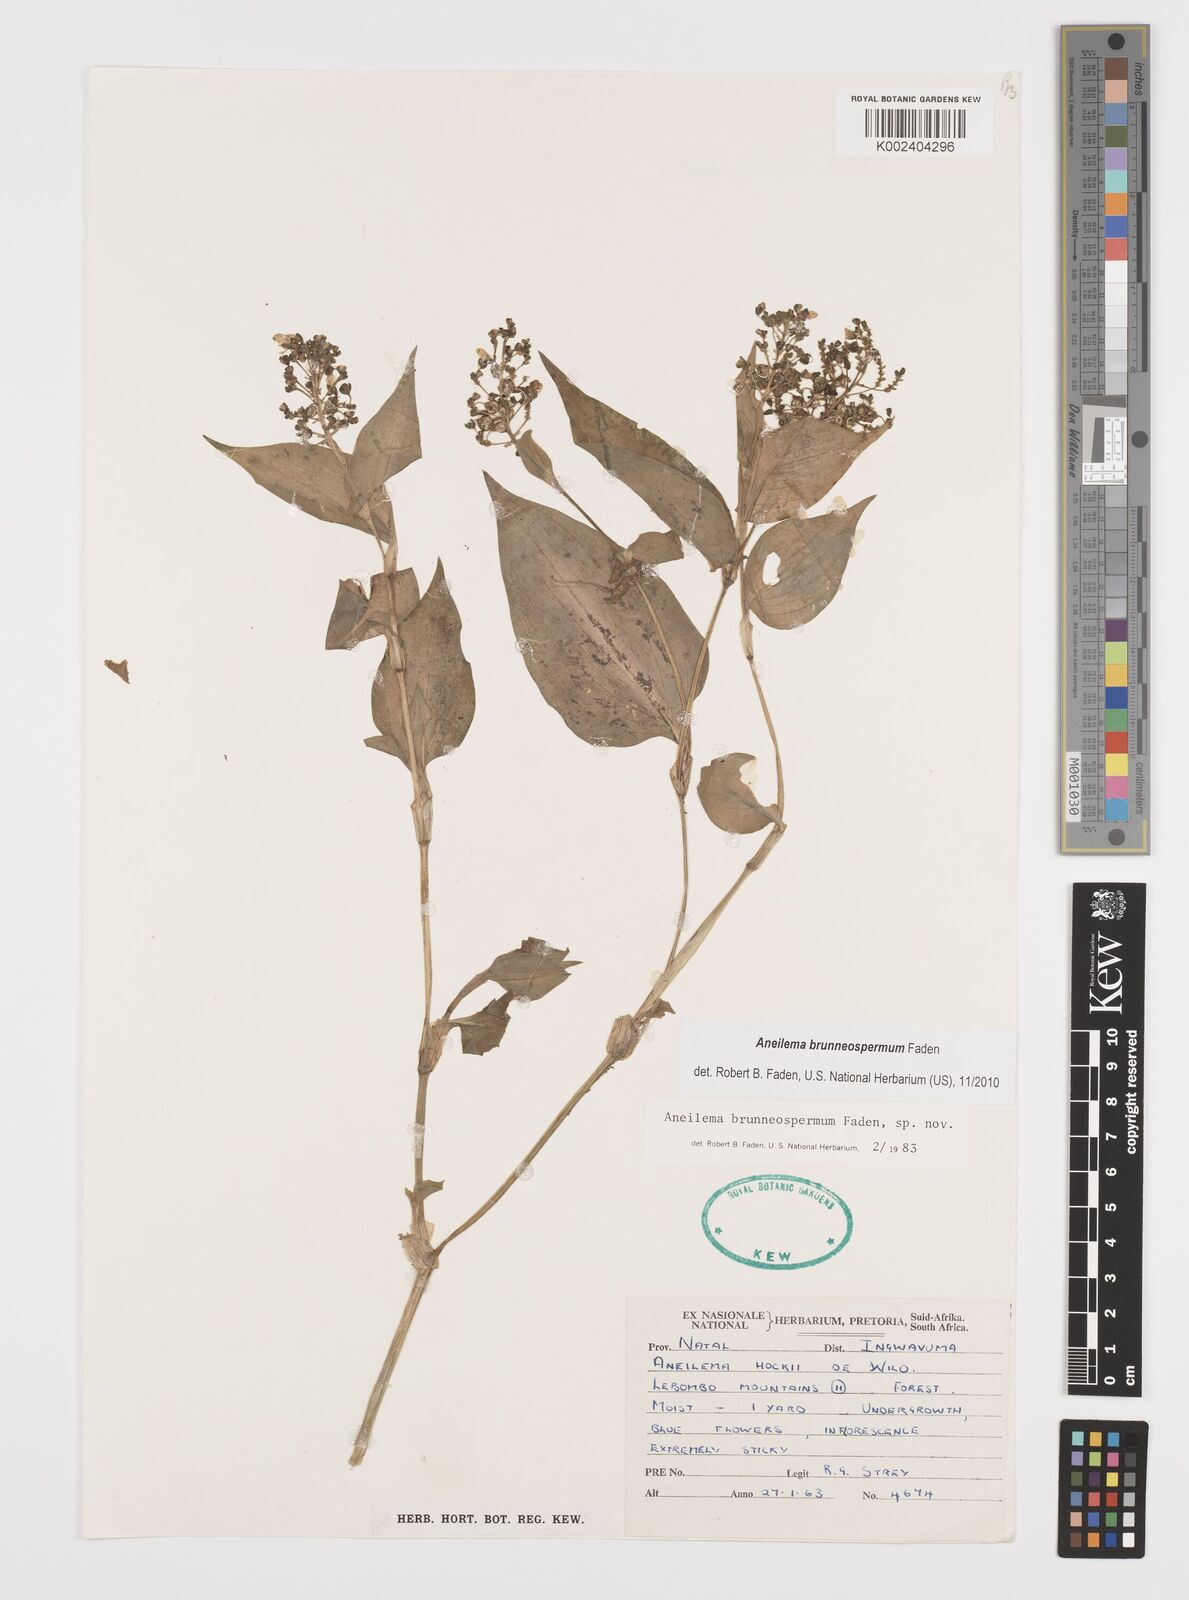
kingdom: Plantae
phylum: Tracheophyta
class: Liliopsida
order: Commelinales
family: Commelinaceae
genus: Aneilema
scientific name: Aneilema brunneospermum
